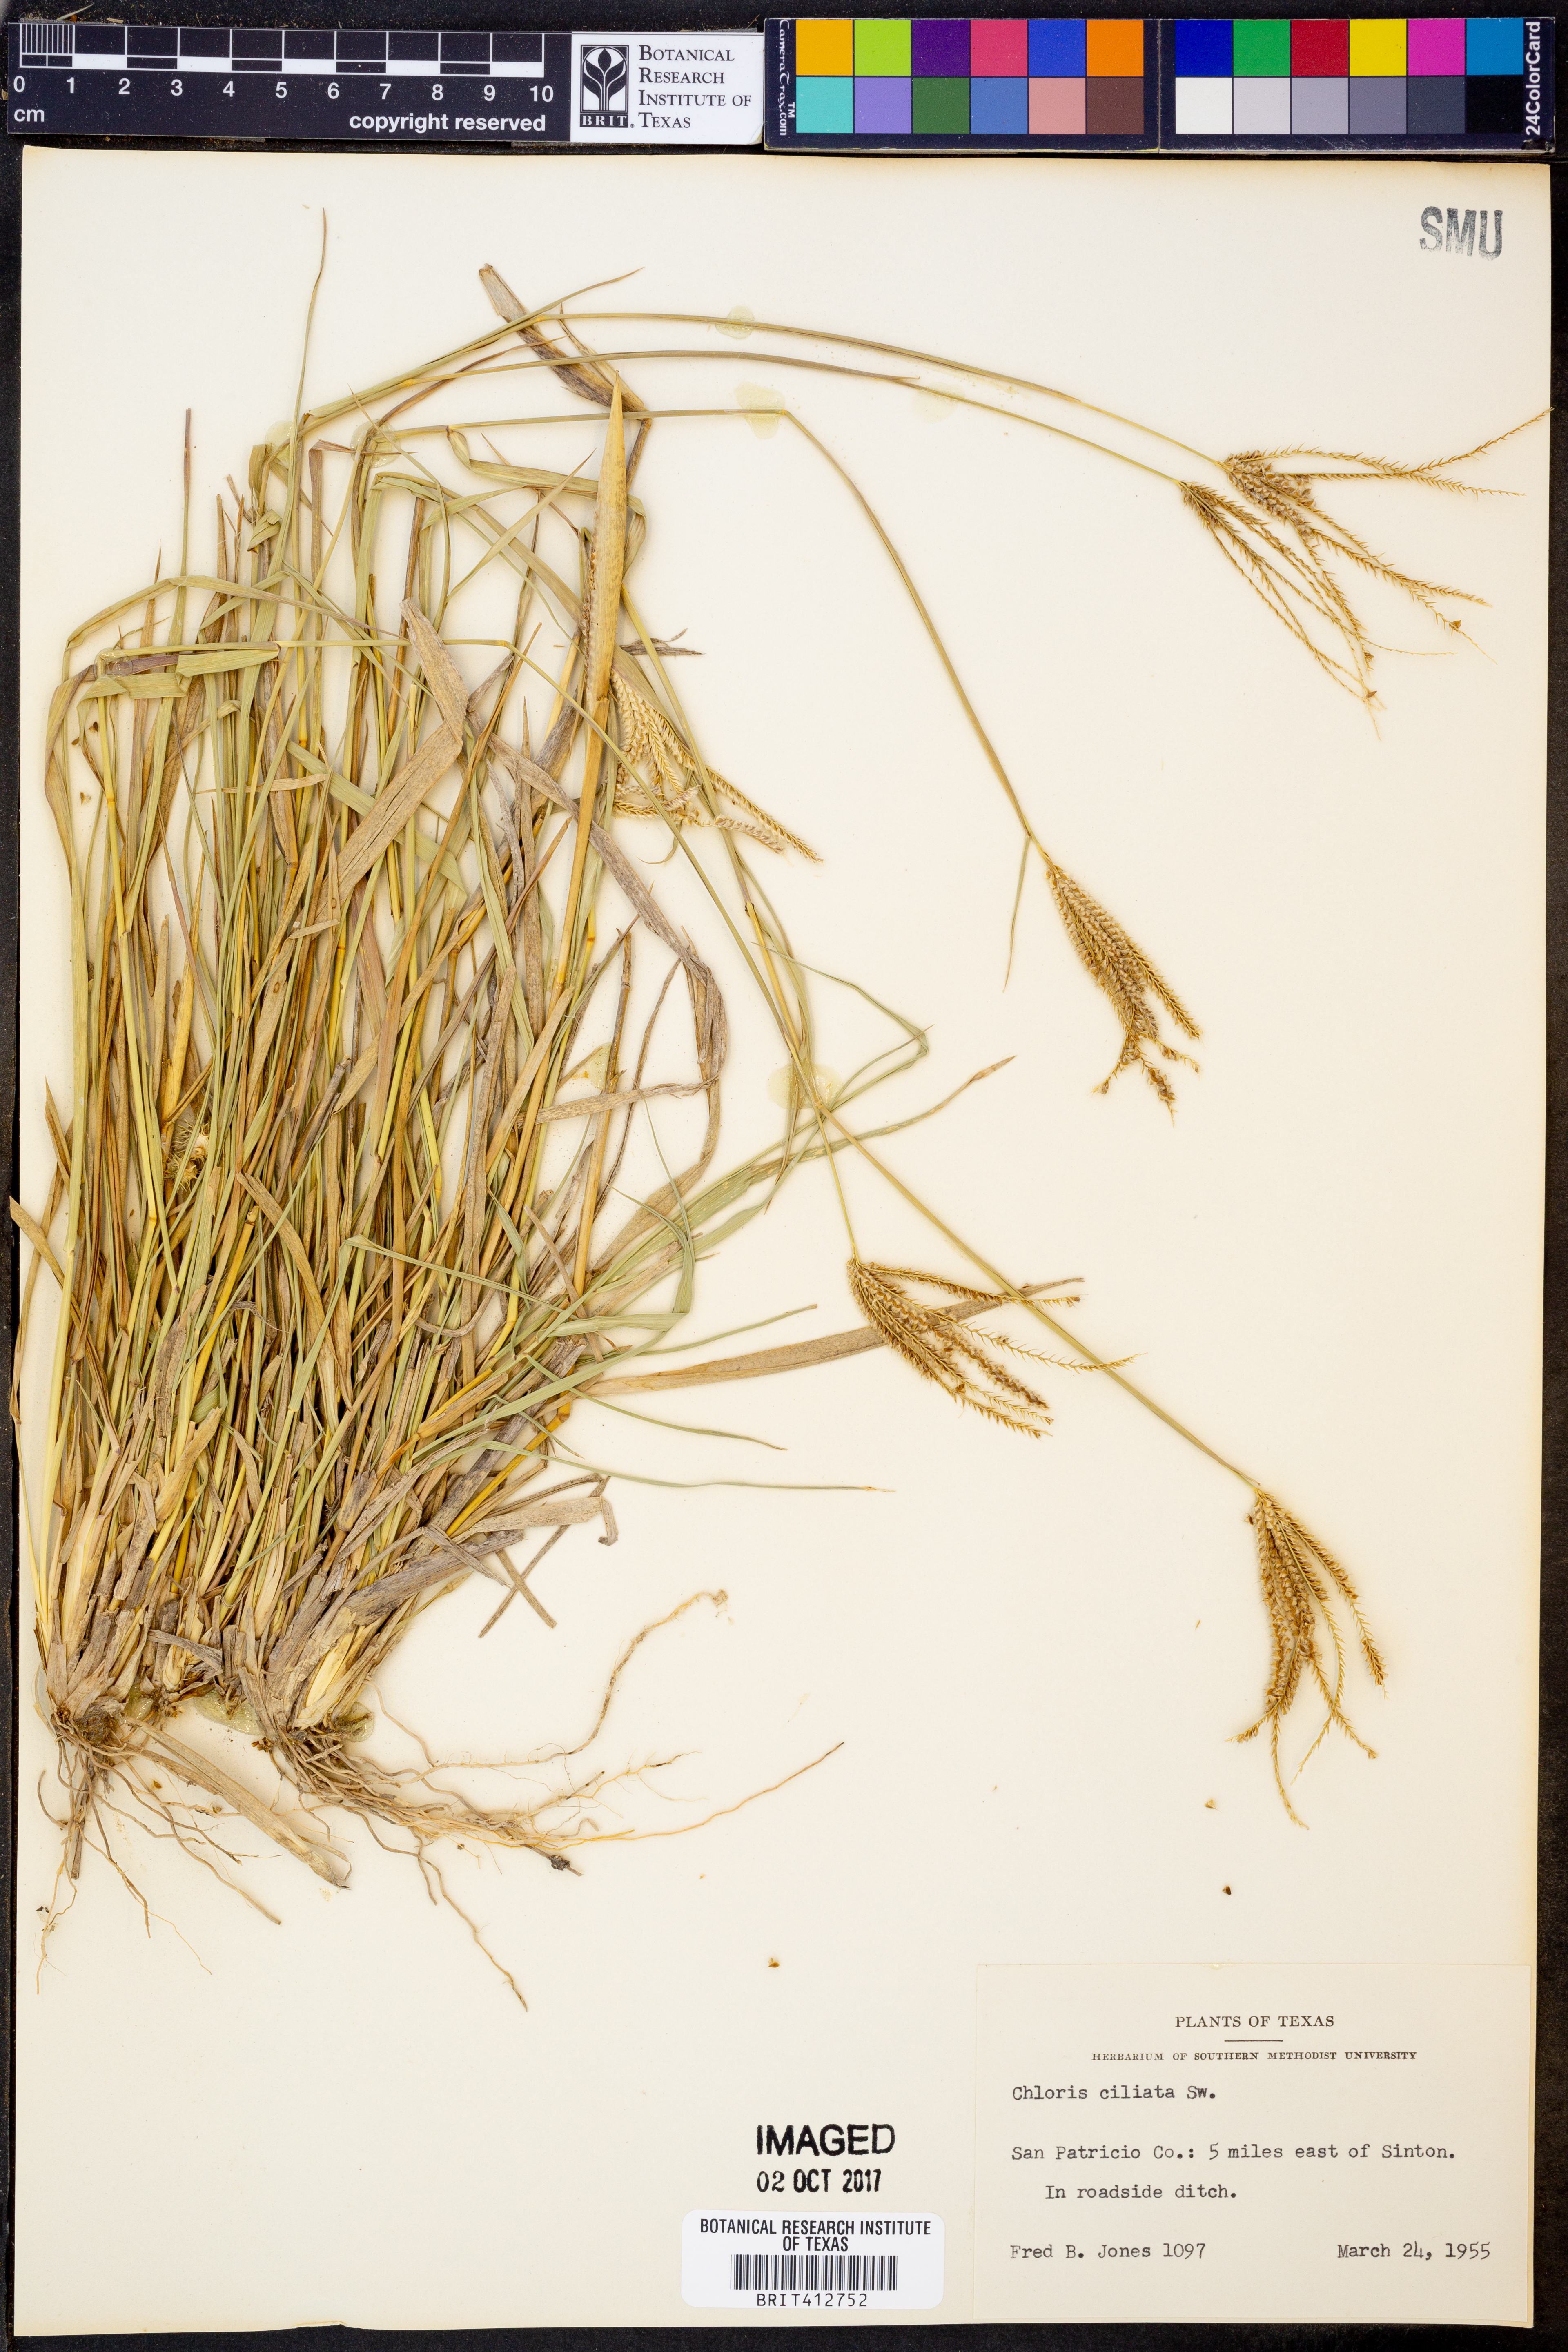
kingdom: Plantae
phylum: Tracheophyta
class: Liliopsida
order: Poales
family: Poaceae
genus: Stapfochloa
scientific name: Stapfochloa ciliata
